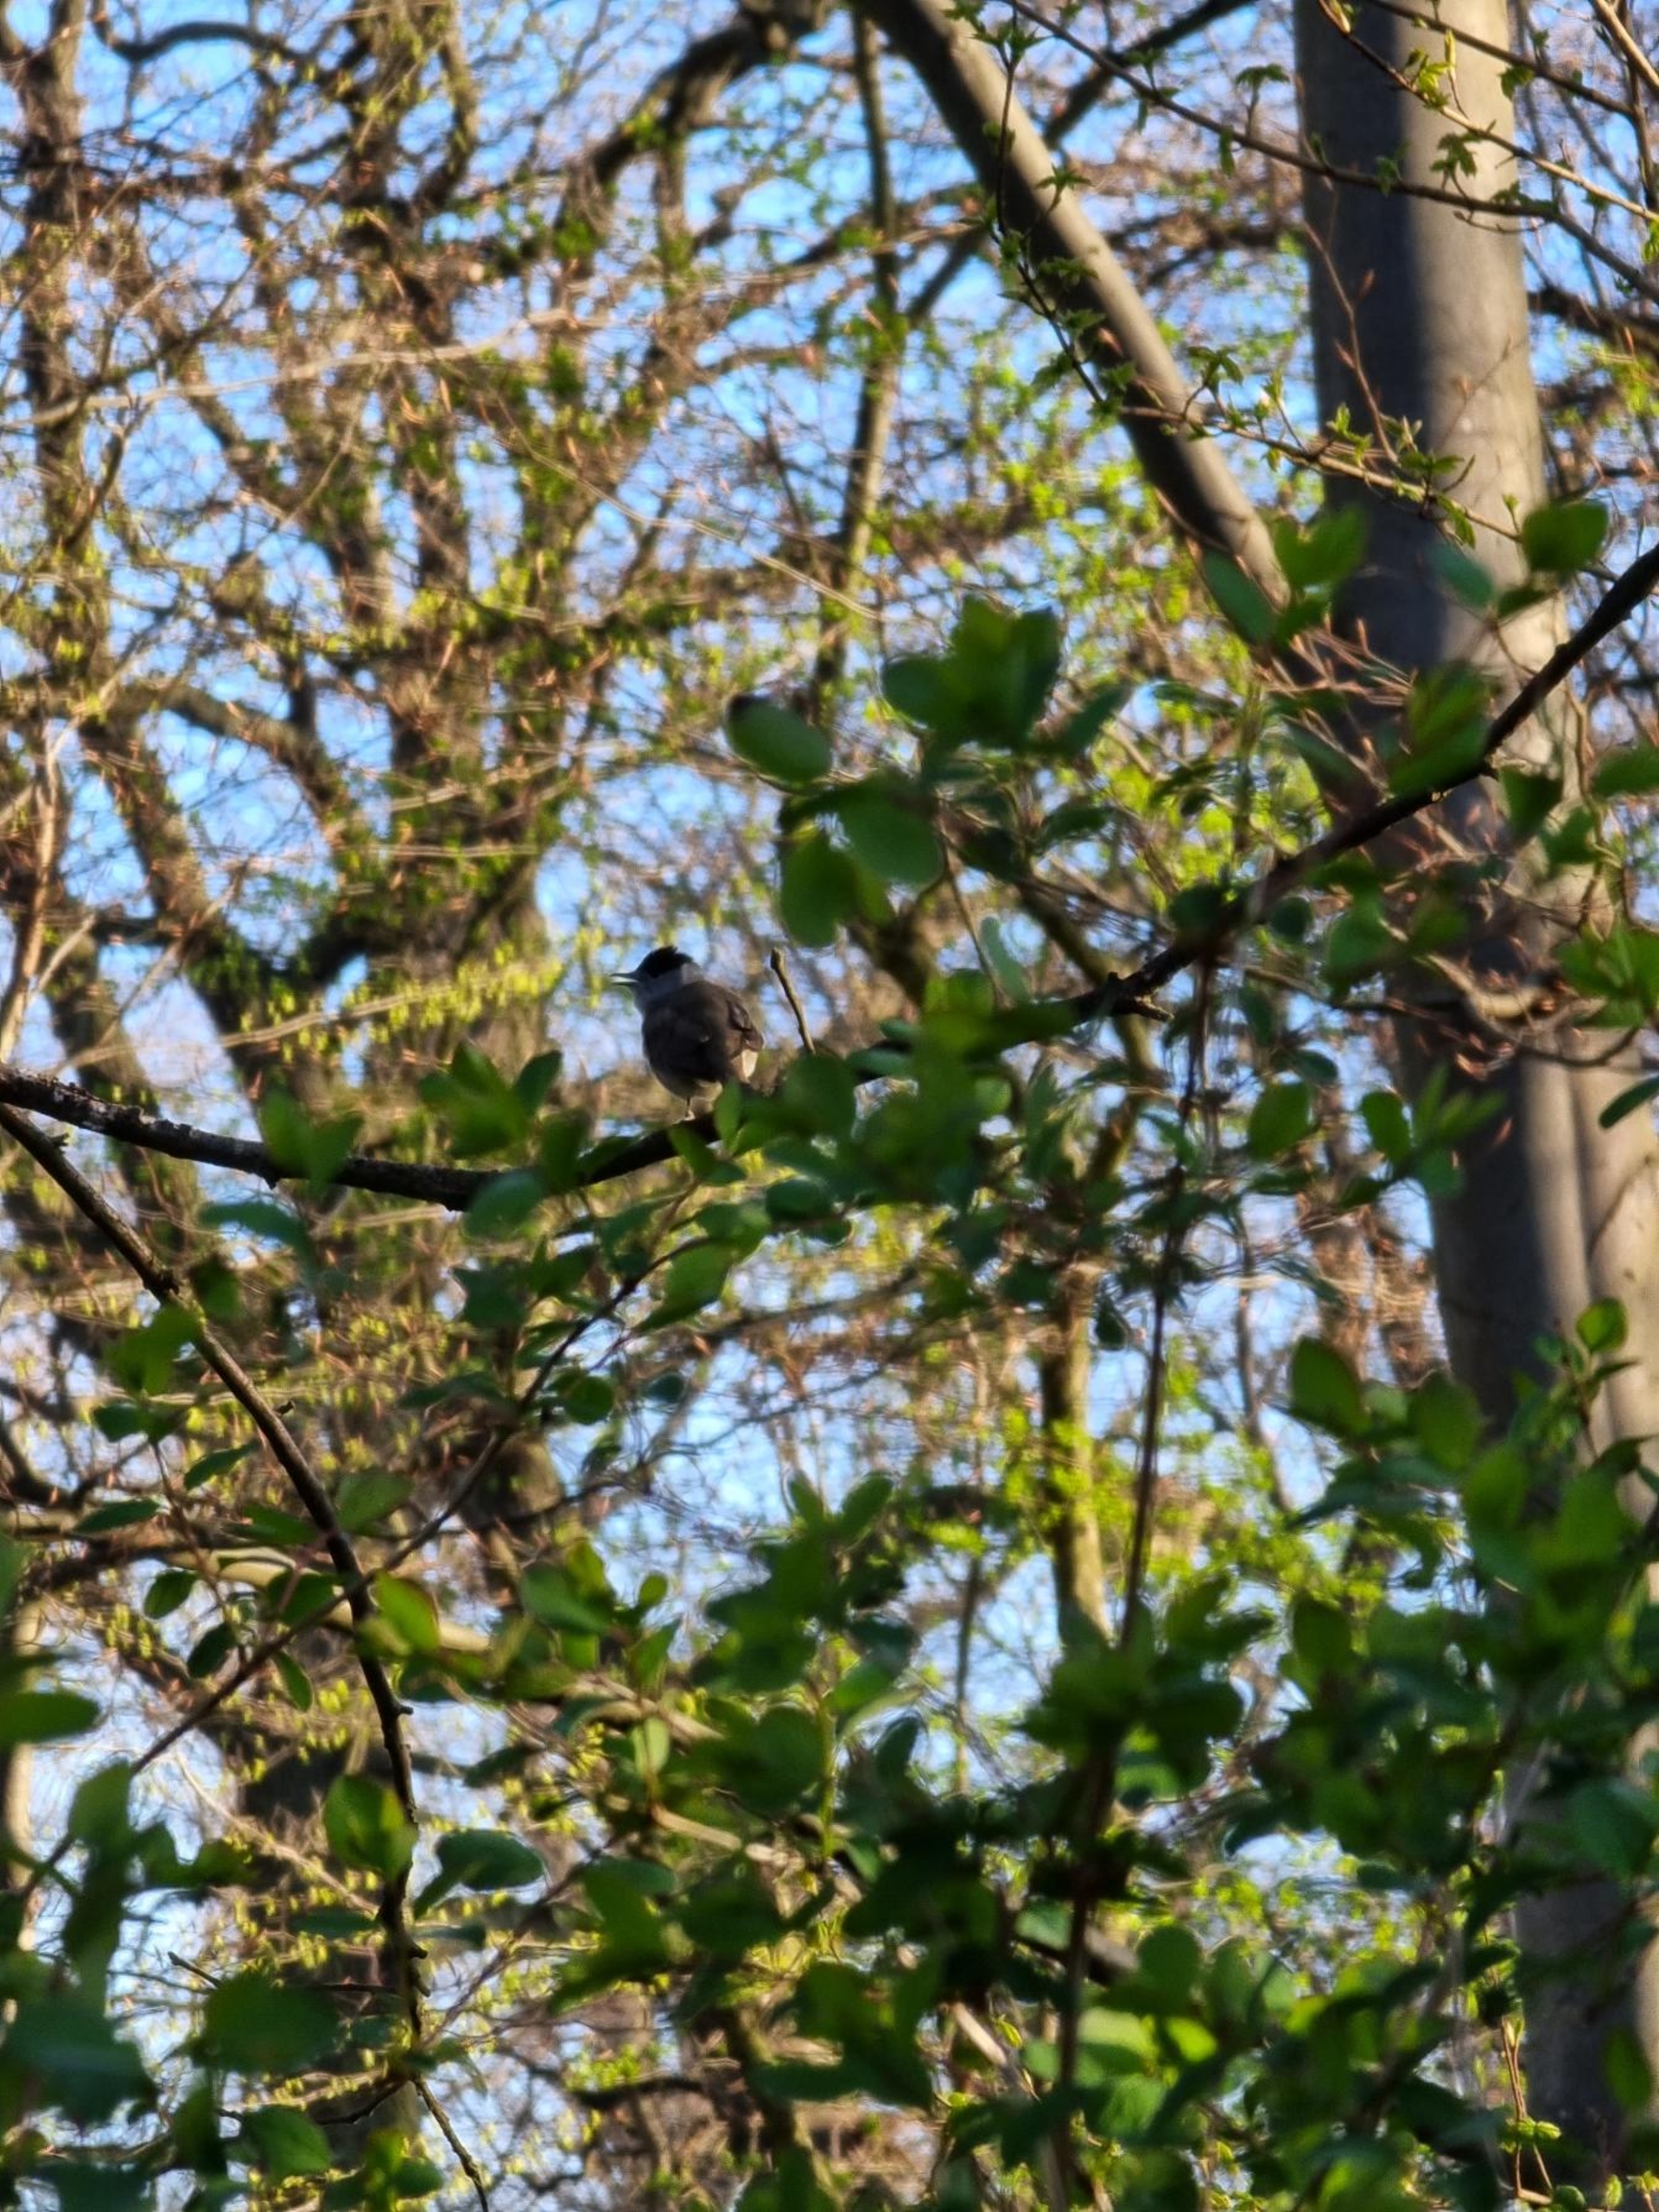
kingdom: Animalia
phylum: Chordata
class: Aves
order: Passeriformes
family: Sylviidae
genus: Sylvia
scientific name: Sylvia atricapilla
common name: Munk
